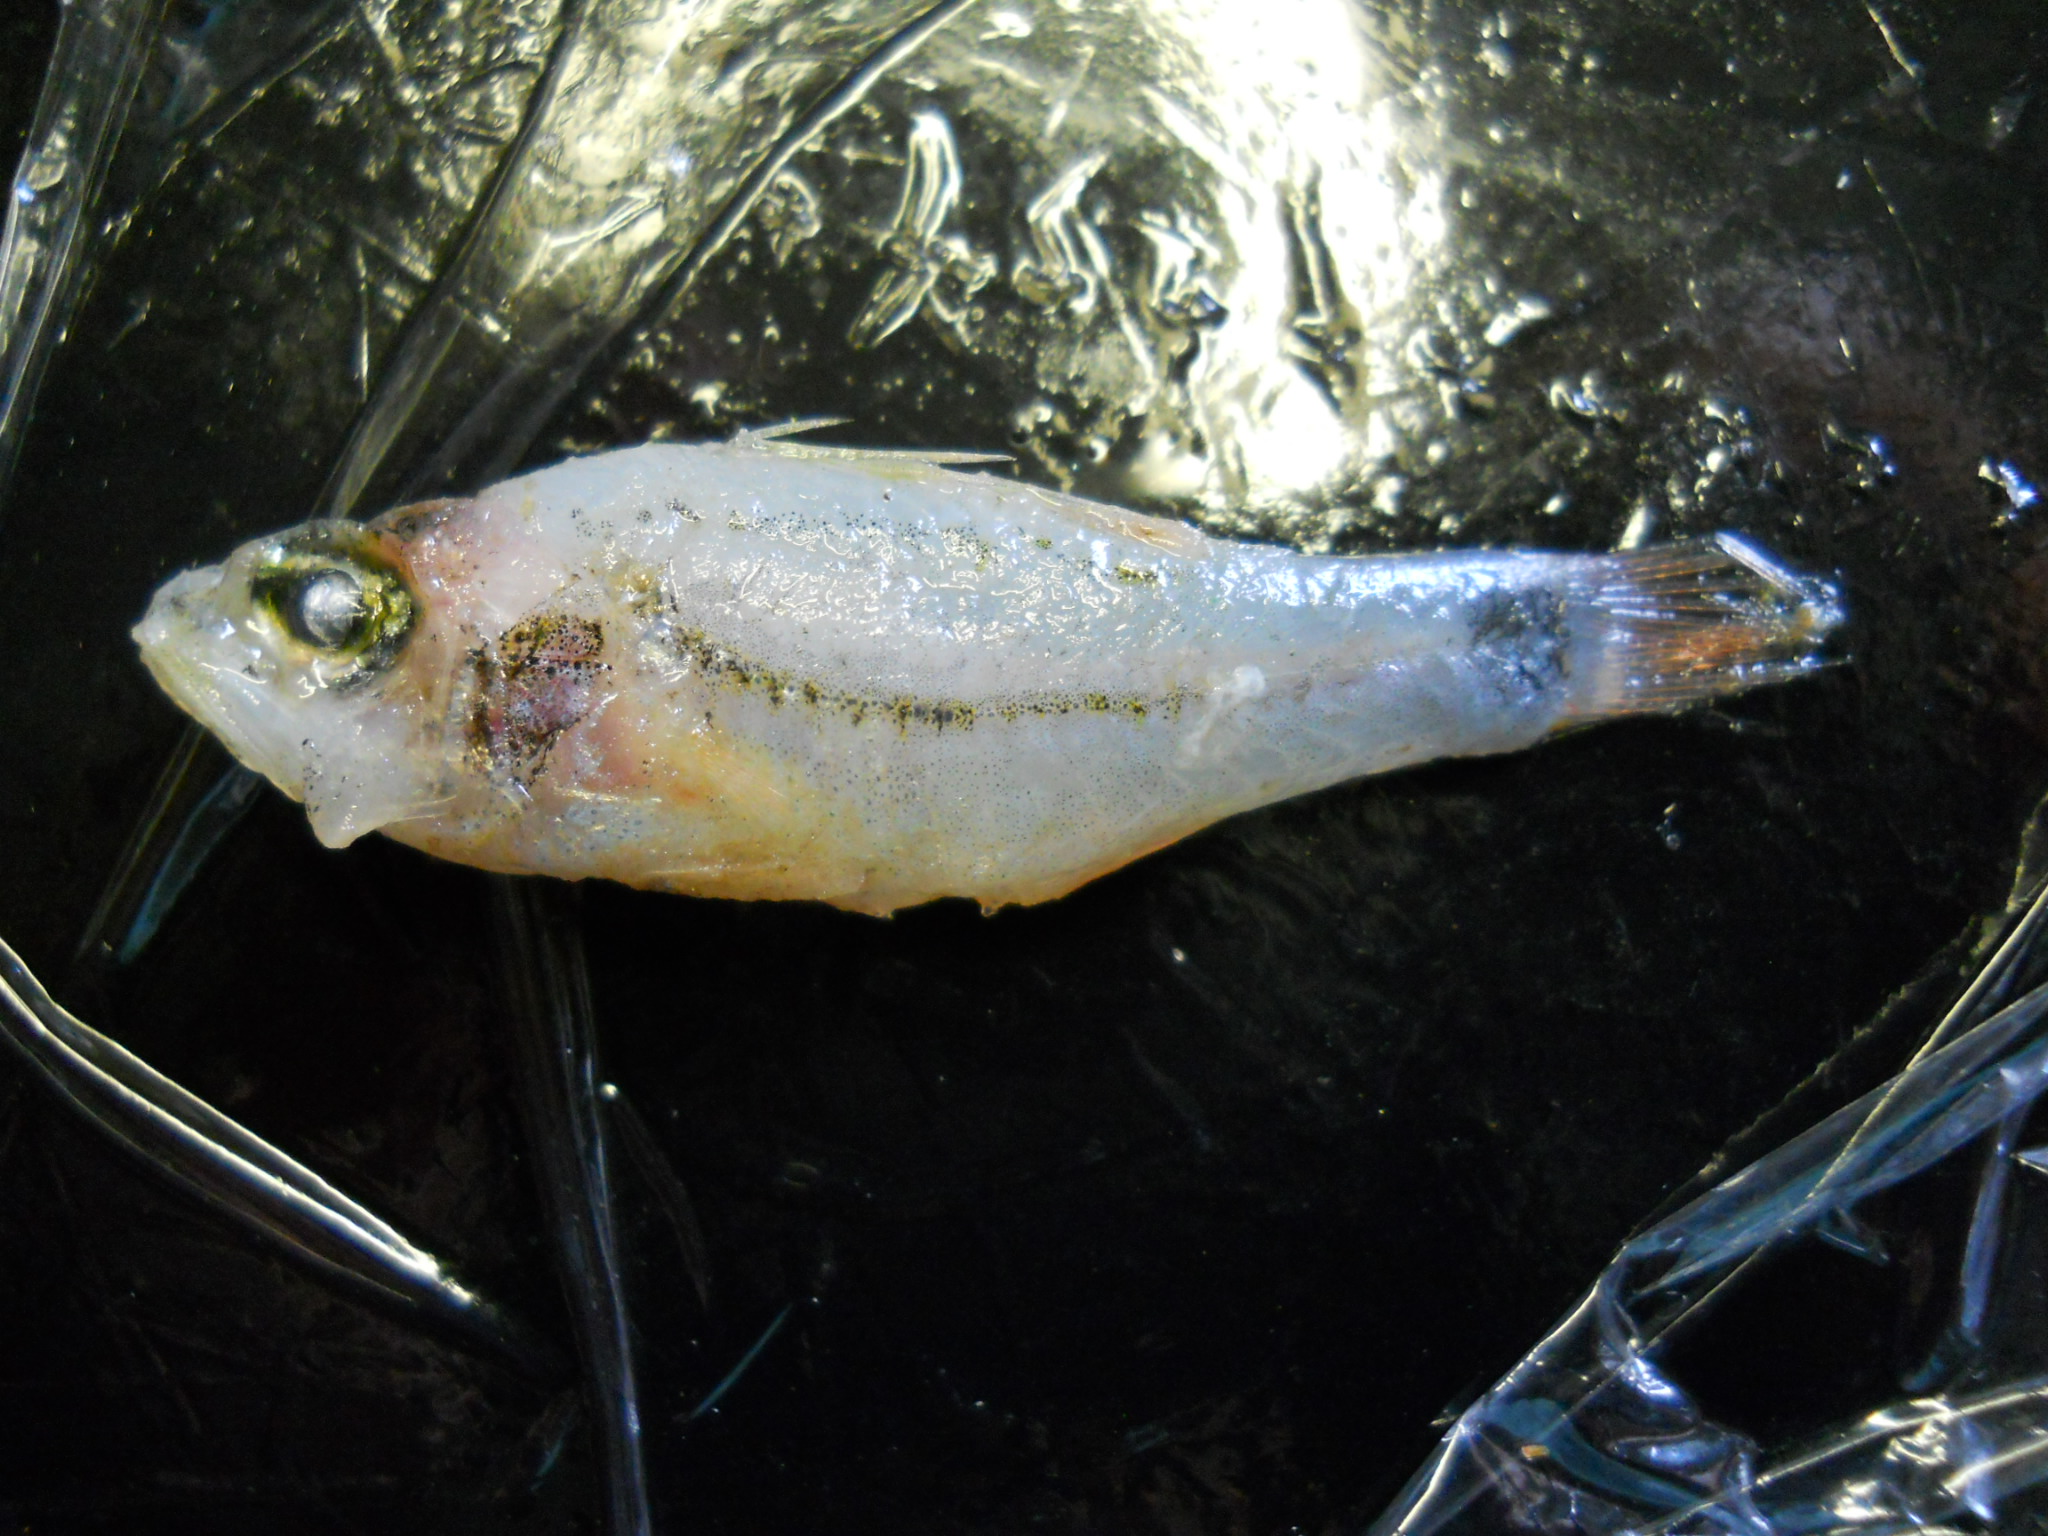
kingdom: Animalia
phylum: Chordata
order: Perciformes
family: Apogonidae
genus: Apogon
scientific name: Apogon
